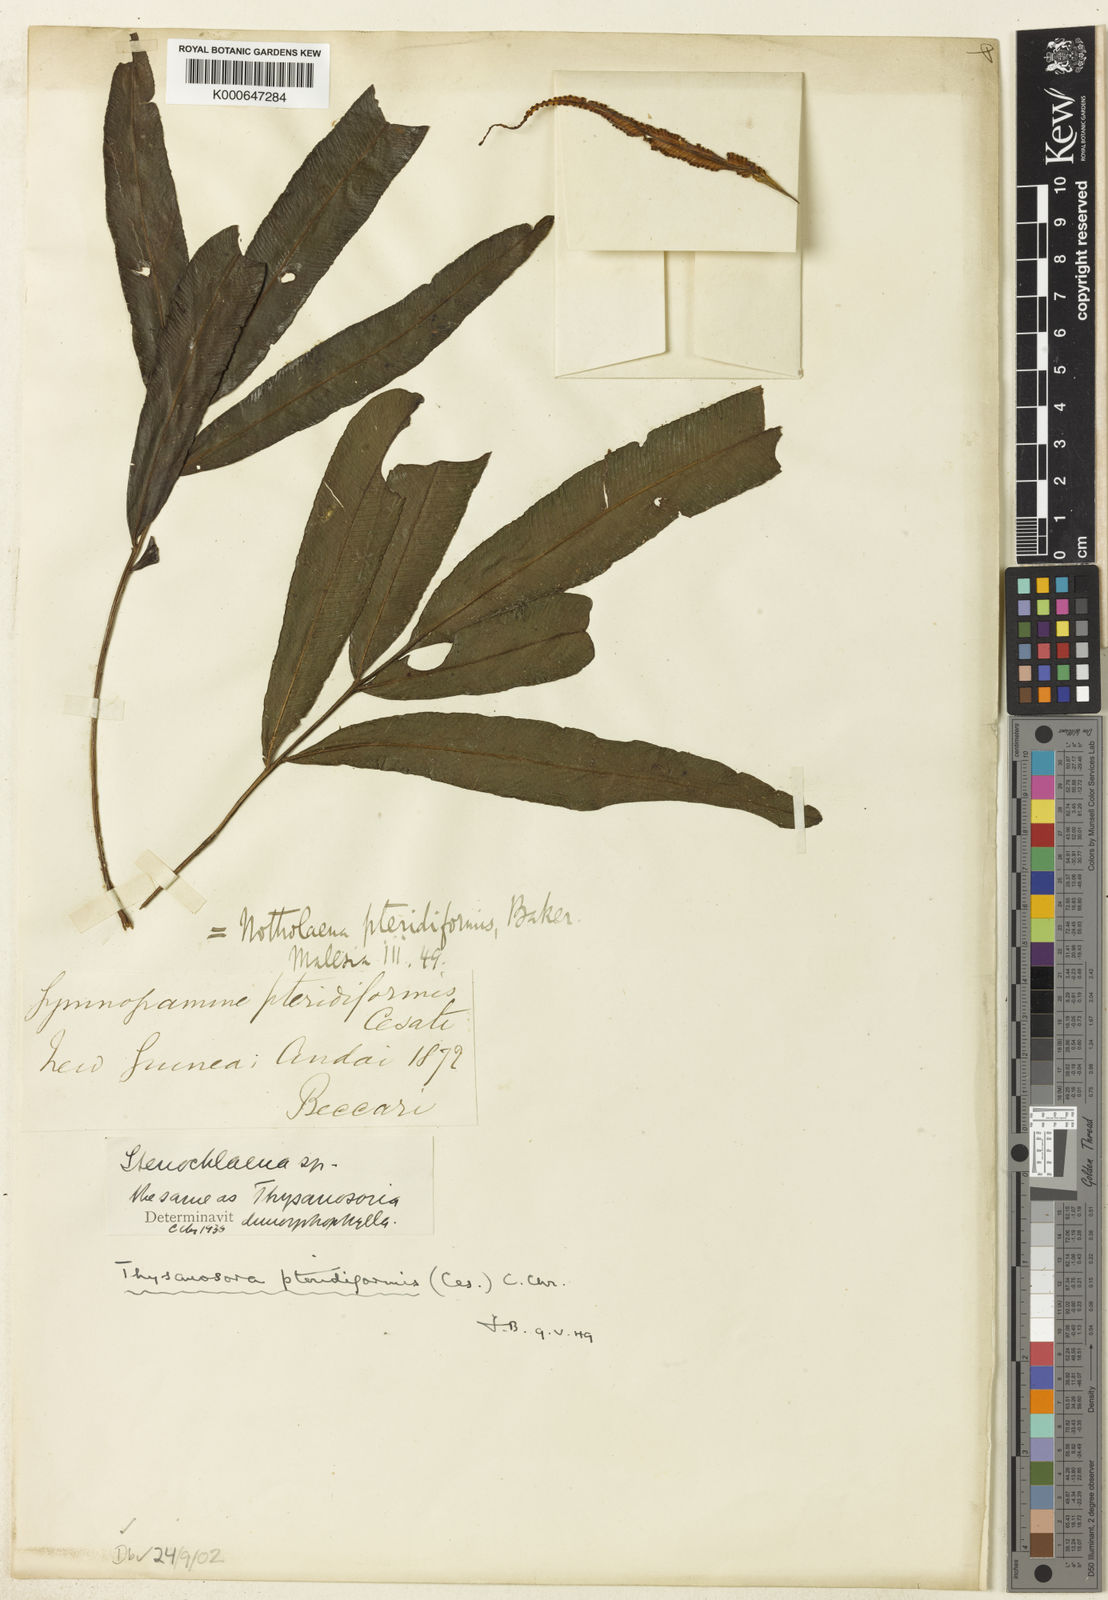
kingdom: Plantae
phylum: Tracheophyta
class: Polypodiopsida
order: Polypodiales
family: Lomariopsidaceae
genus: Lomariopsis
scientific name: Lomariopsis pteridiformis
